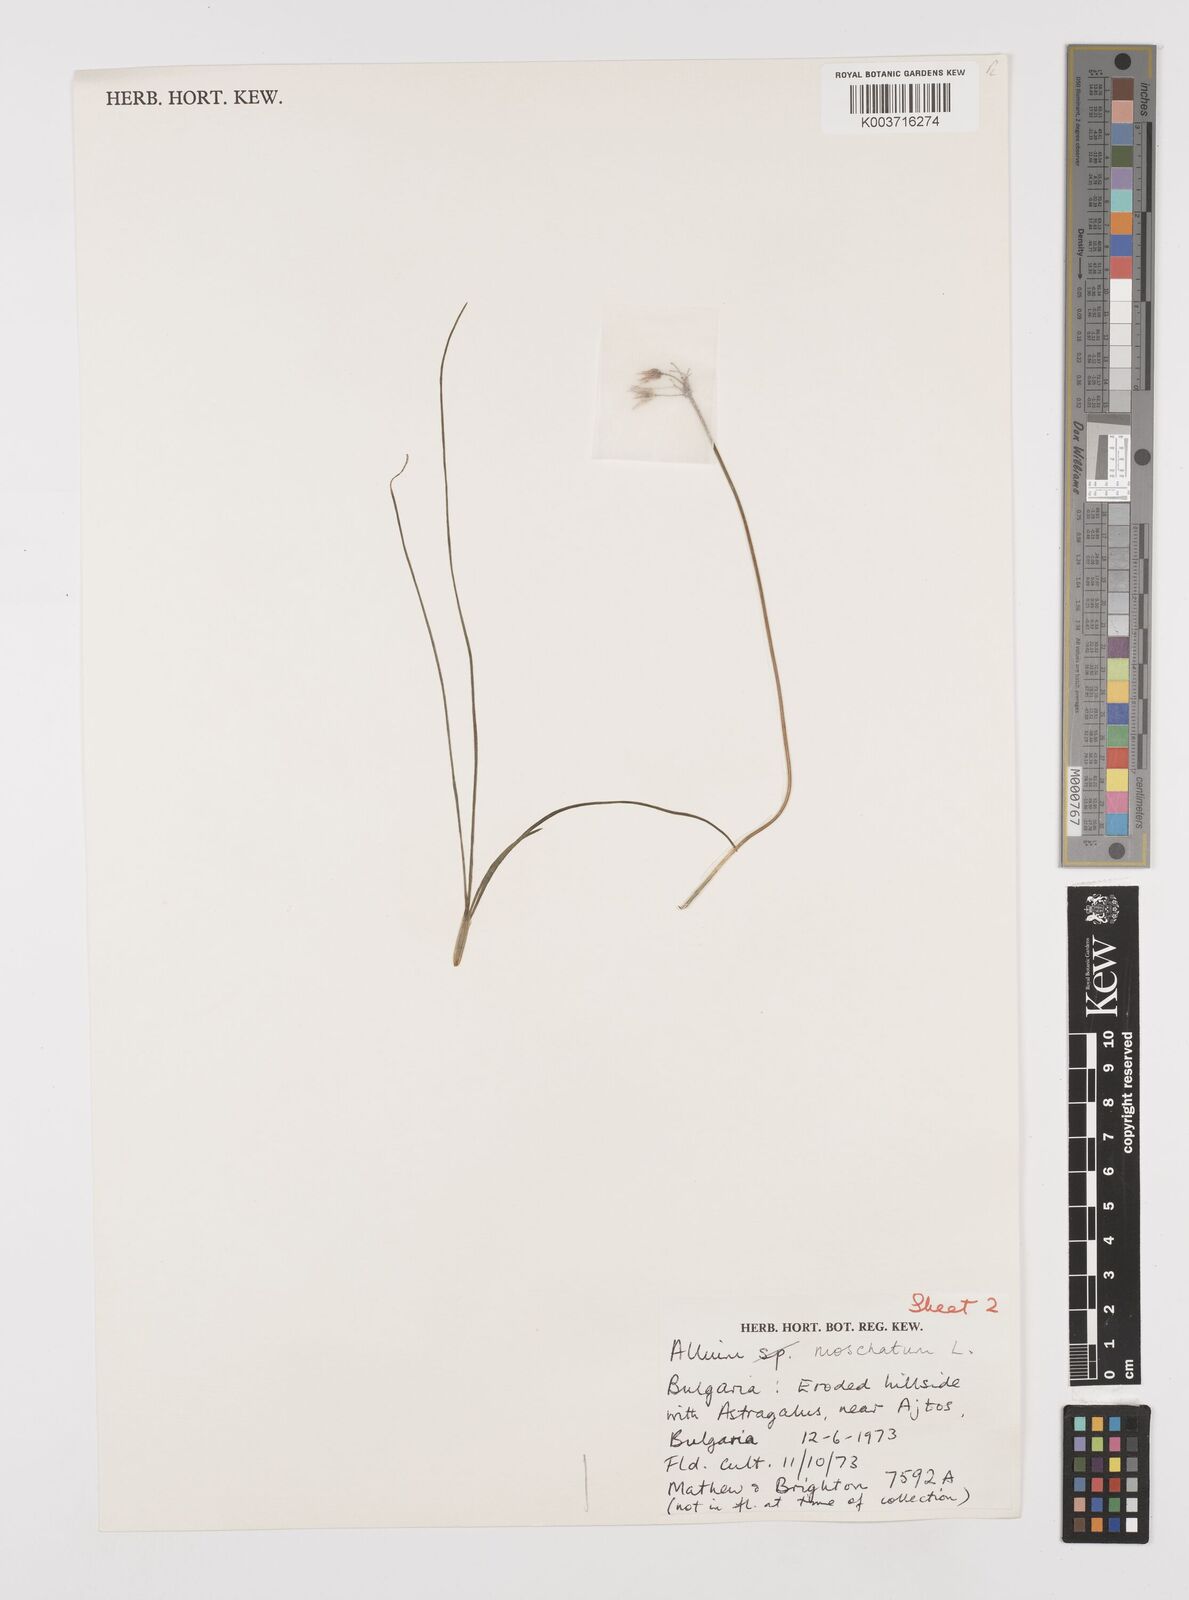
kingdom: Plantae
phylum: Tracheophyta
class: Liliopsida
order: Asparagales
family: Amaryllidaceae
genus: Allium
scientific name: Allium moschatum
